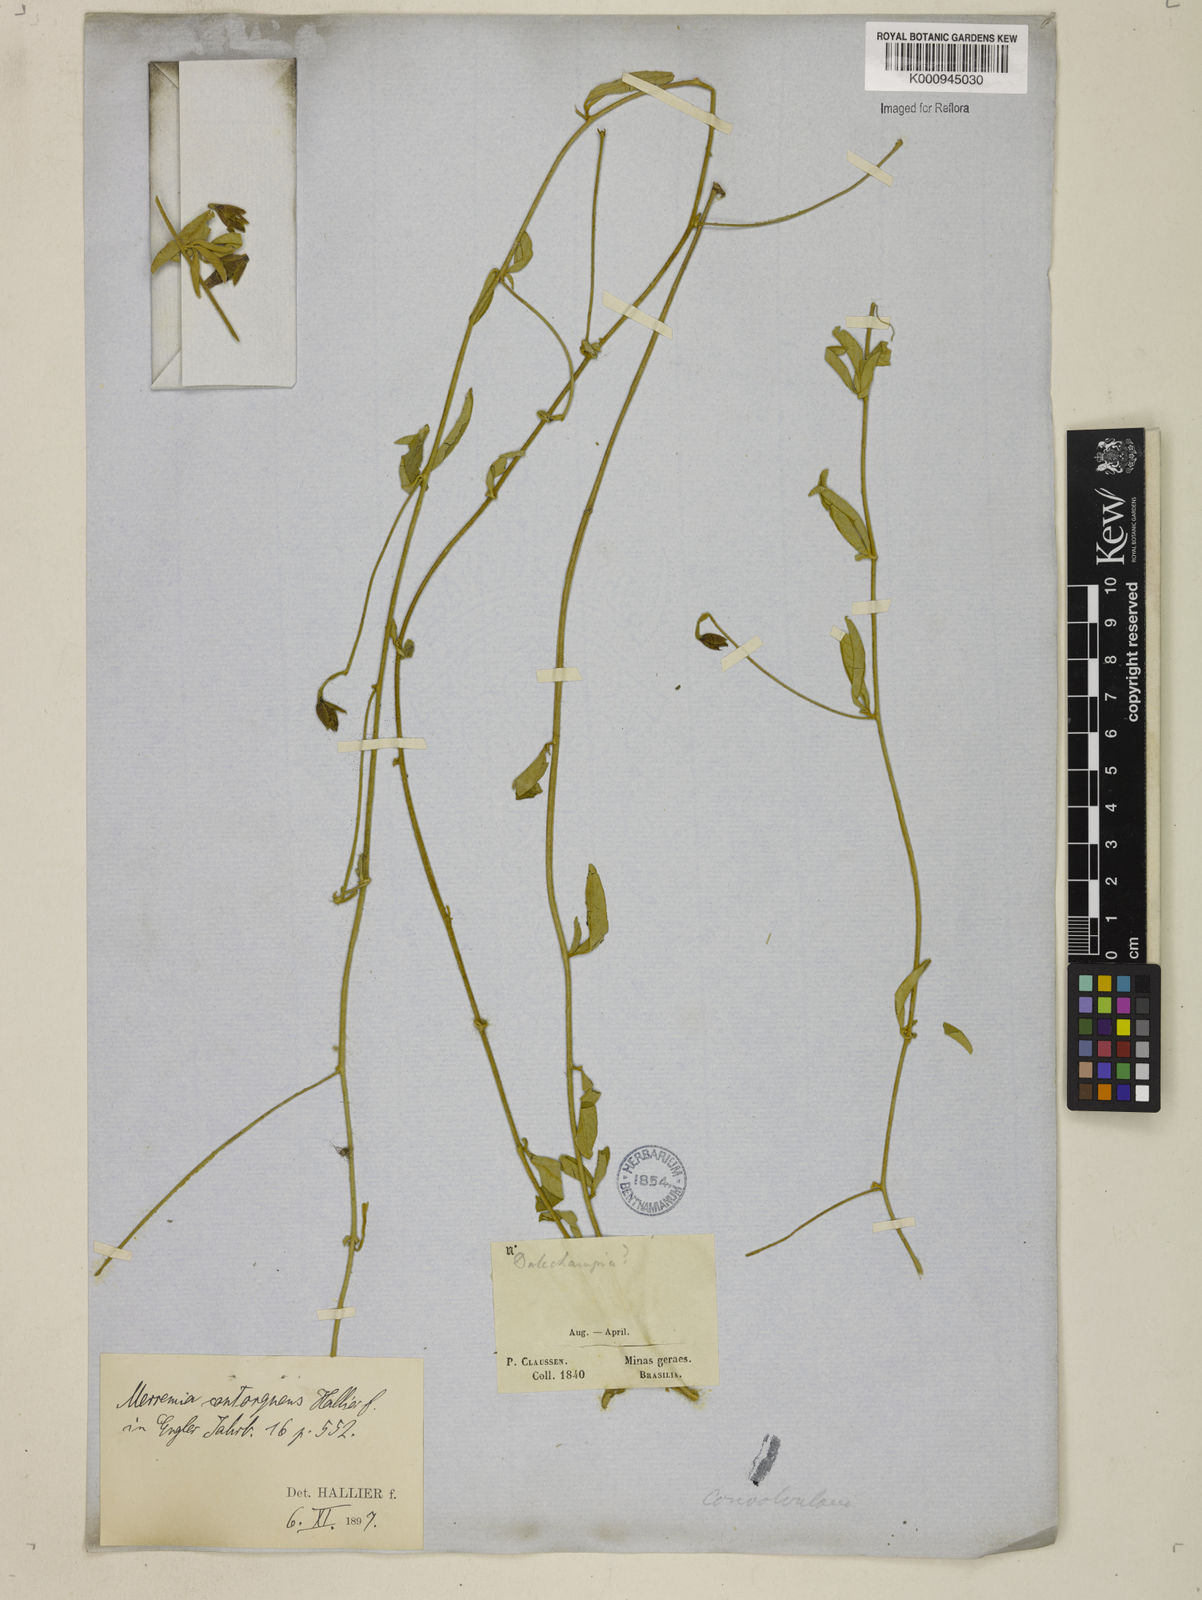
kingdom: Plantae
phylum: Tracheophyta
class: Magnoliopsida
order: Solanales
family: Convolvulaceae
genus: Distimake
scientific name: Distimake contorquens
